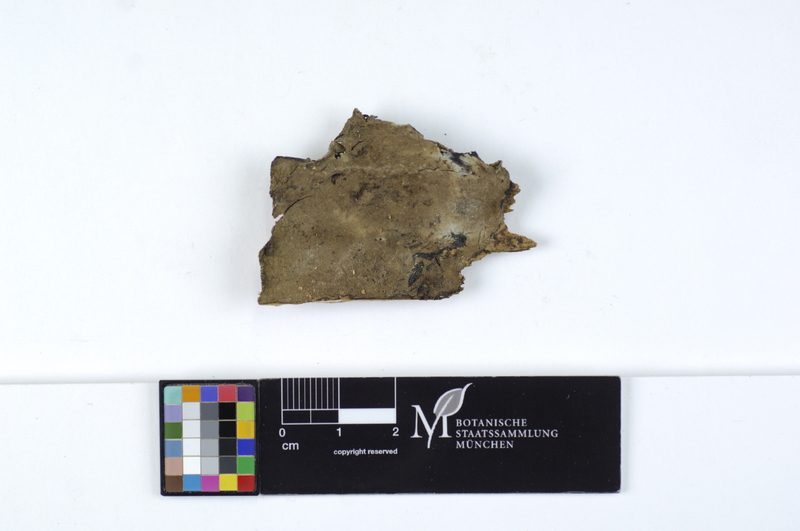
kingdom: Fungi
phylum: Basidiomycota
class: Agaricomycetes
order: Boletales
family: Coniophoraceae
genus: Coniophora
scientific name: Coniophora olivacea
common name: Olive duster
